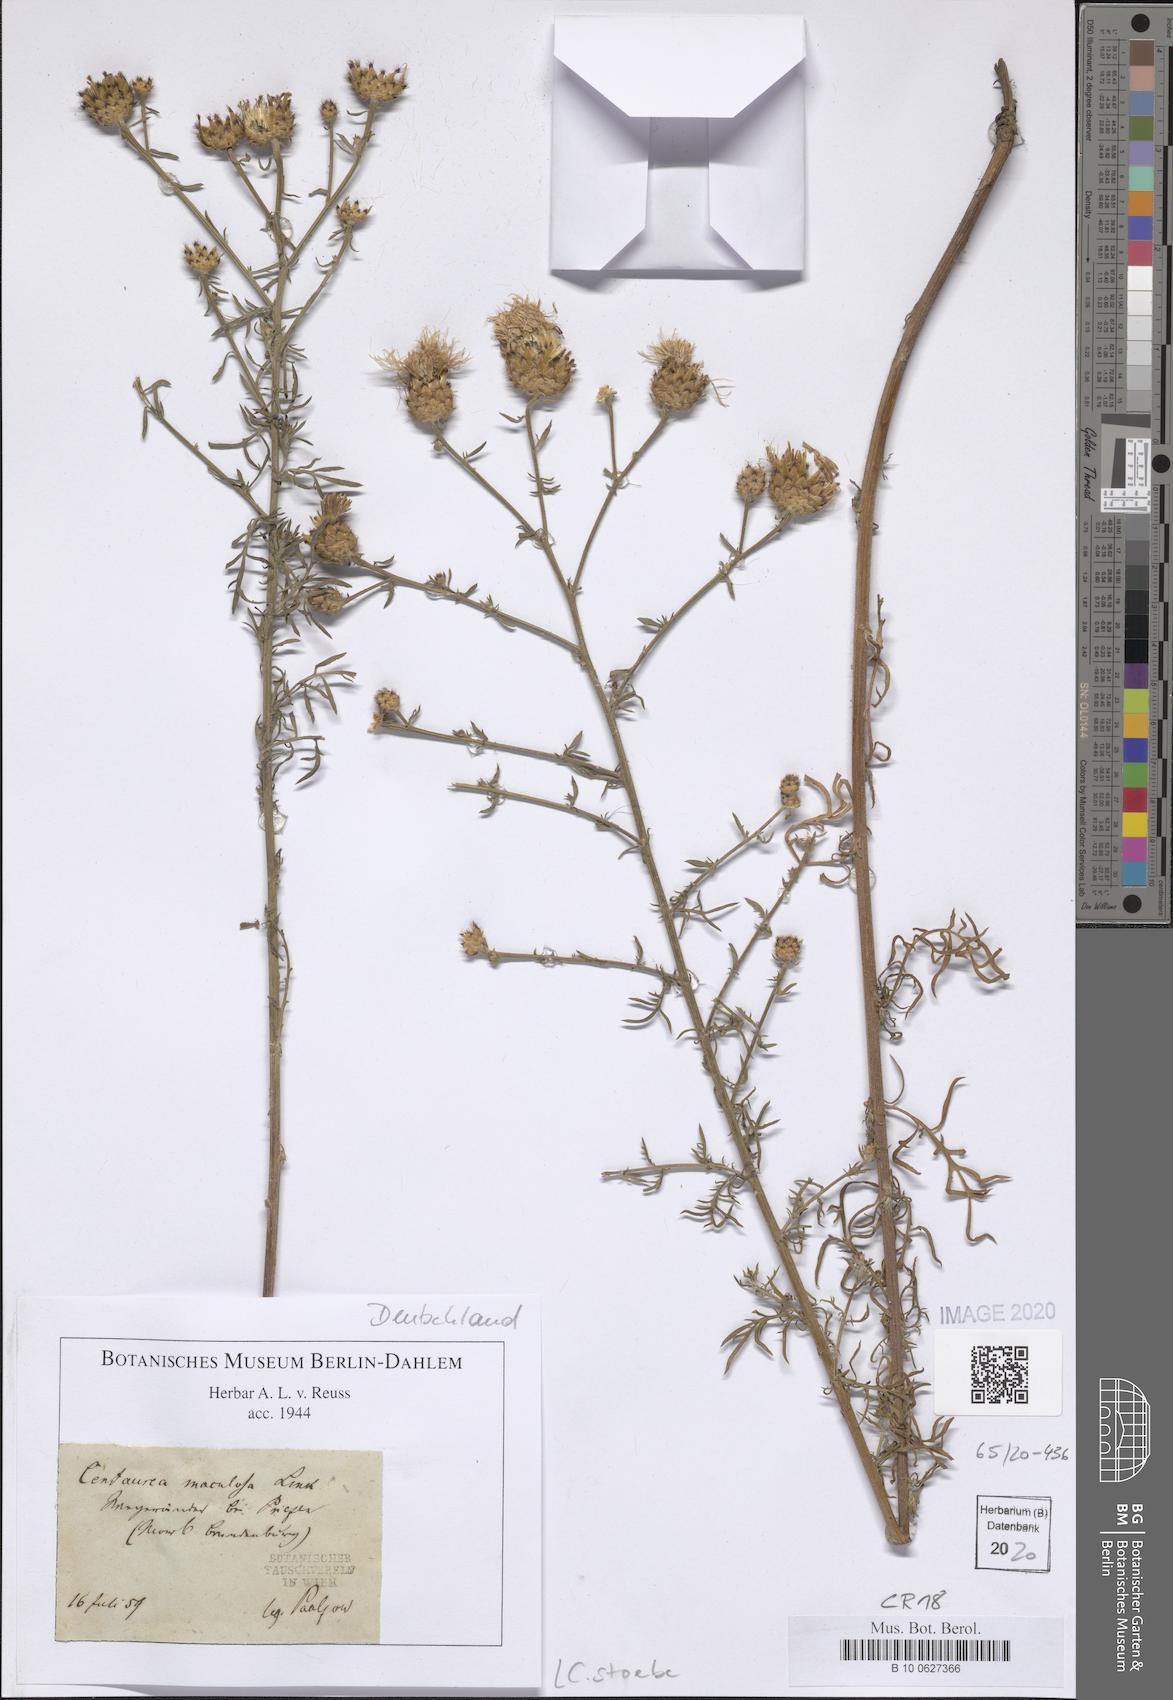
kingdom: Plantae
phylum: Tracheophyta
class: Magnoliopsida
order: Asterales
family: Asteraceae
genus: Centaurea
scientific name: Centaurea stoebe
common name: Spotted knapweed
